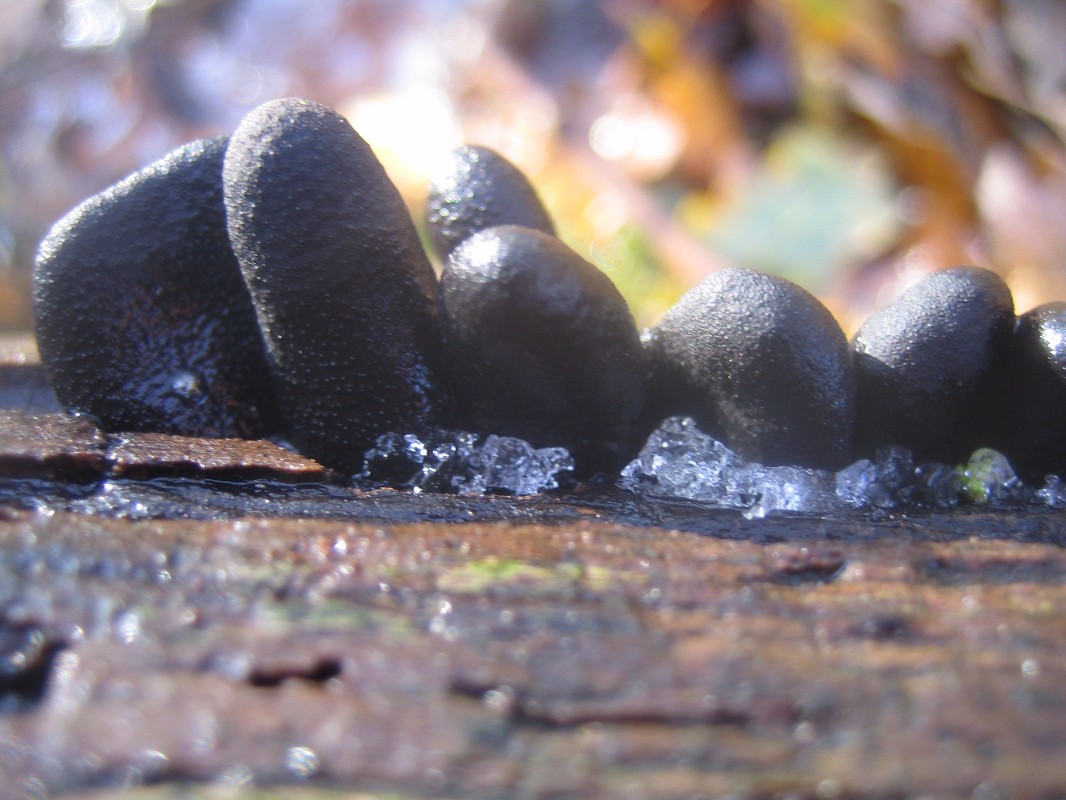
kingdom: Fungi
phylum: Ascomycota
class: Sordariomycetes
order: Xylariales
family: Xylariaceae
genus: Xylaria
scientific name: Xylaria longipes
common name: slank stødsvamp
